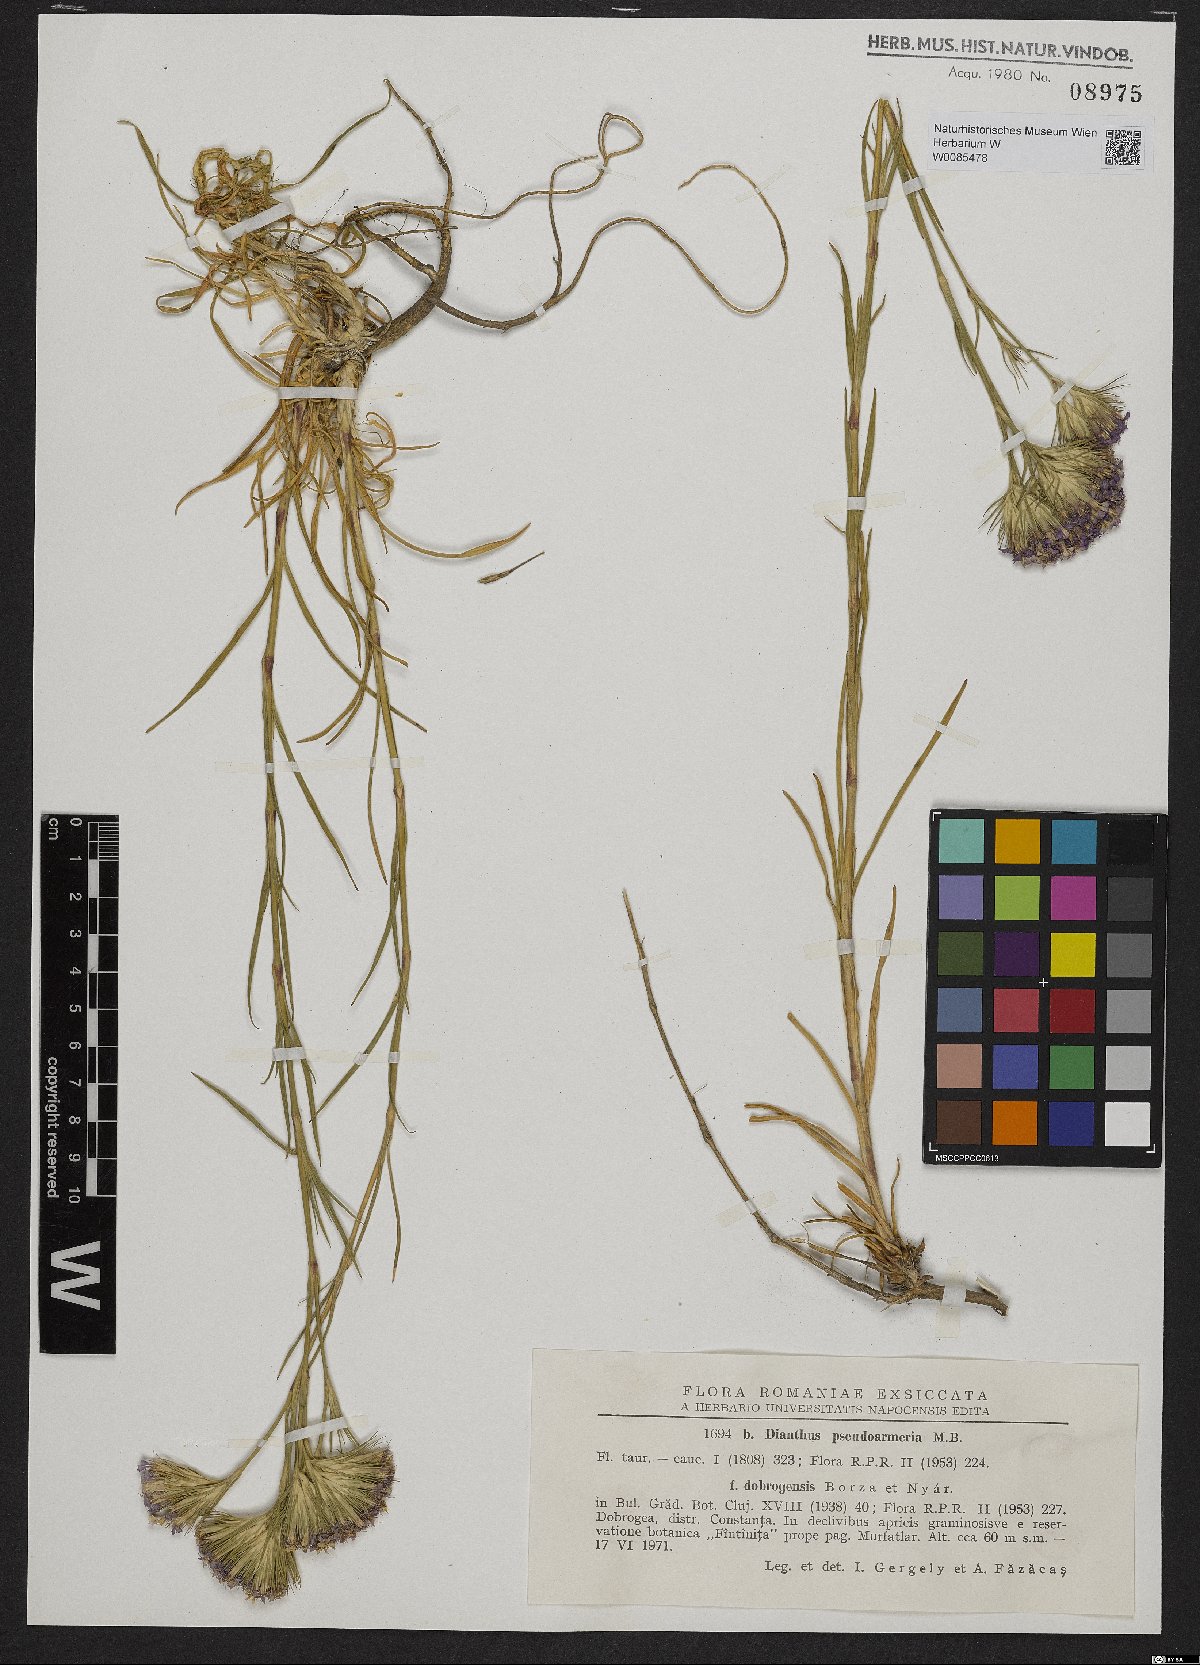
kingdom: Plantae
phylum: Tracheophyta
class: Magnoliopsida
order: Caryophyllales
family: Caryophyllaceae
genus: Dianthus
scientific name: Dianthus pseudarmeria
